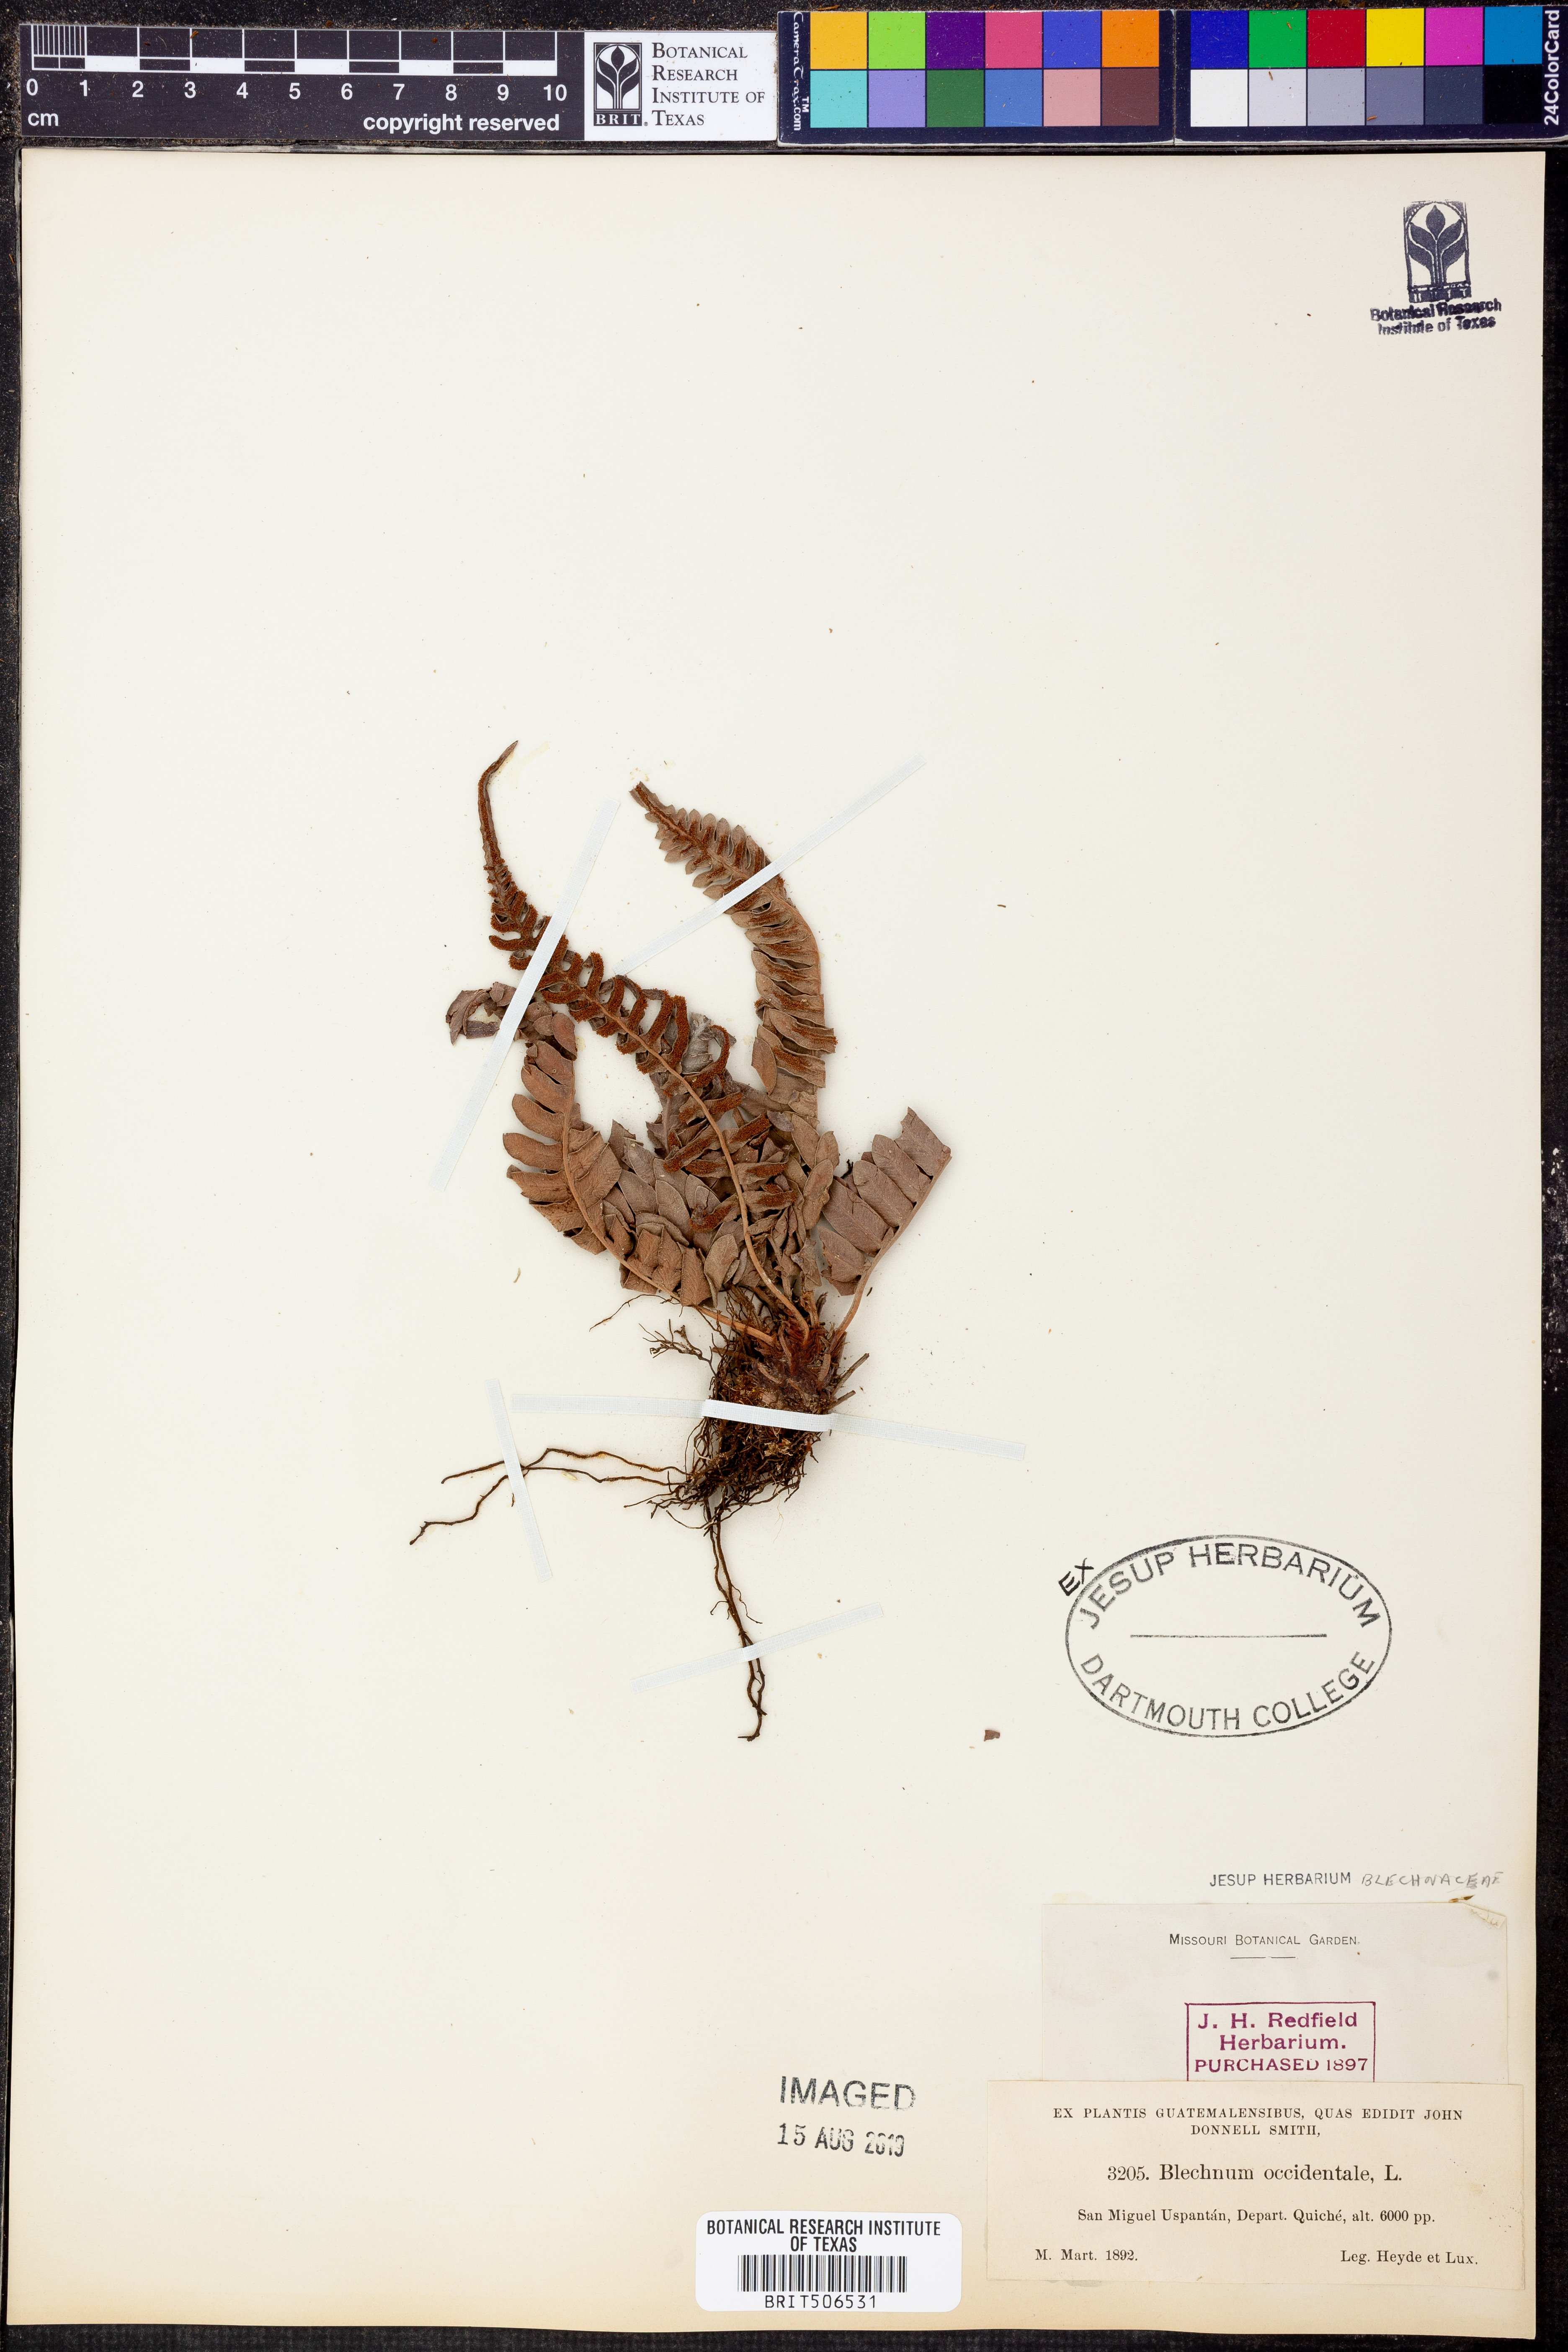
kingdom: Plantae
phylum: Tracheophyta
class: Polypodiopsida
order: Polypodiales
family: Blechnaceae
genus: Blechnum
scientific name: Blechnum occidentale
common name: Hammock fern
